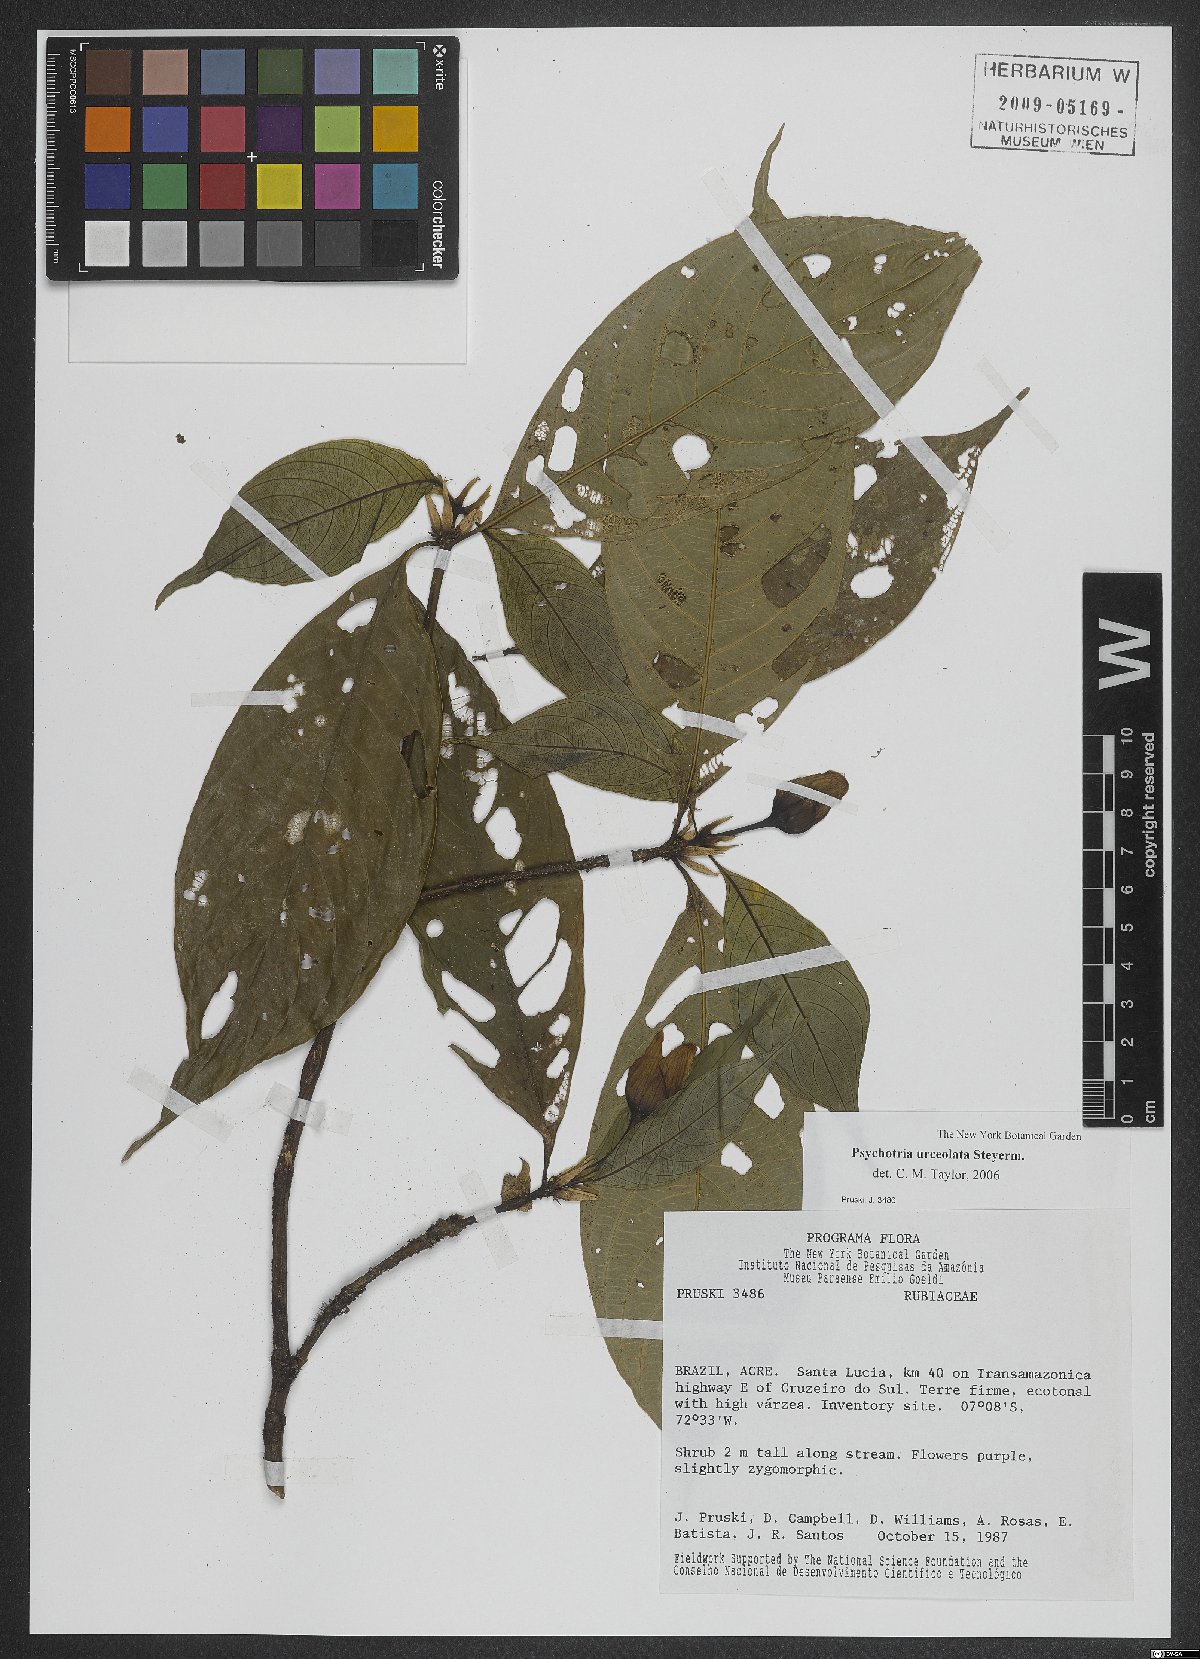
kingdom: Plantae
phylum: Tracheophyta
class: Magnoliopsida
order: Gentianales
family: Rubiaceae
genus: Palicourea
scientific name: Palicourea urceolata
